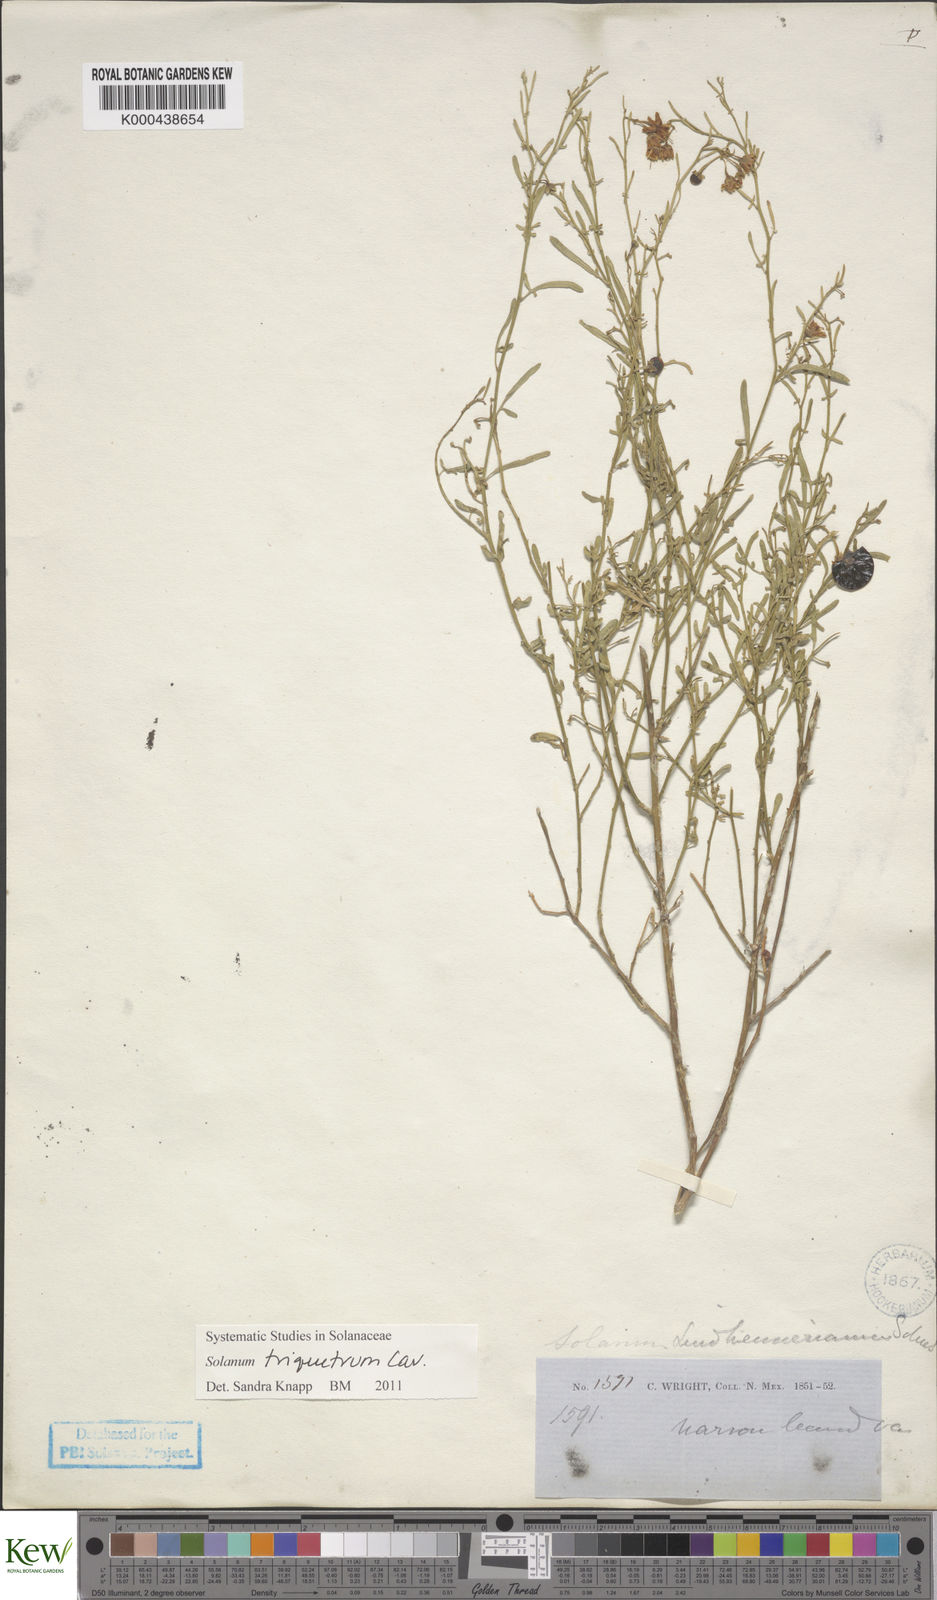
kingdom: Plantae
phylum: Tracheophyta
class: Magnoliopsida
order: Solanales
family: Solanaceae
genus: Solanum
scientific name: Solanum triquetrum
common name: Texas nightshade
